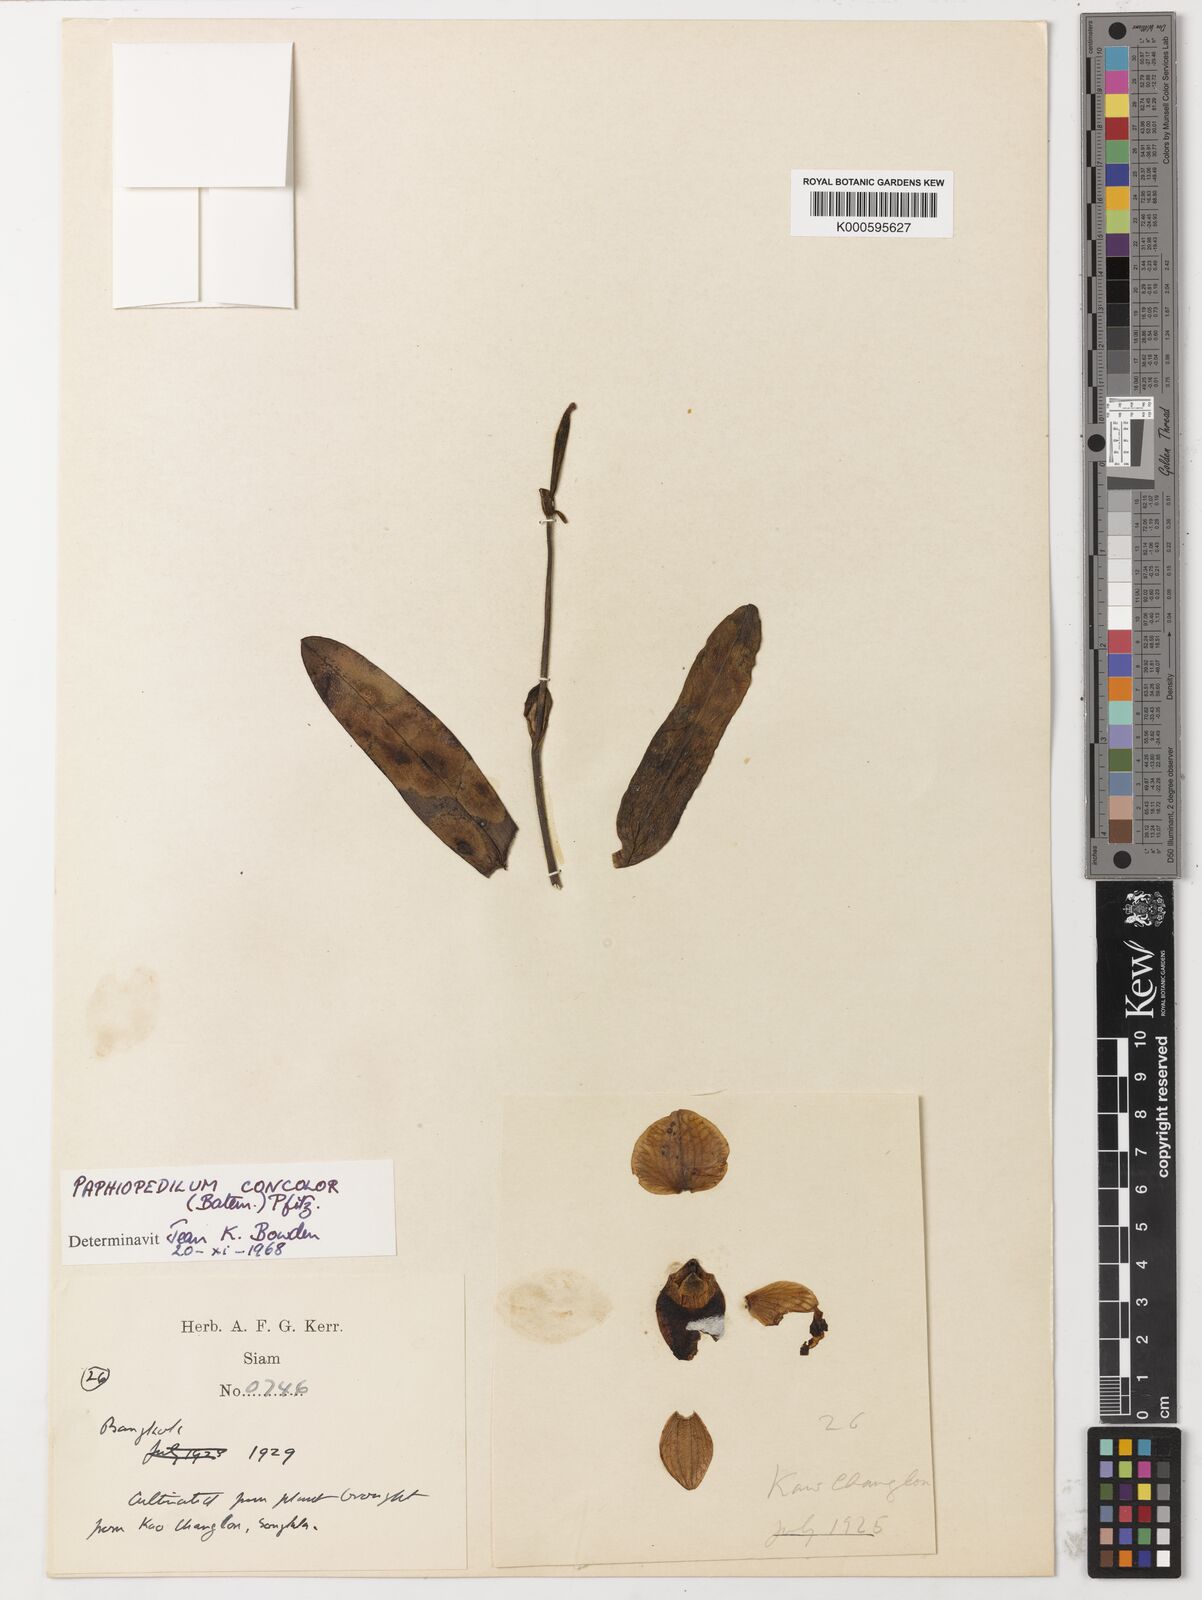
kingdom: Plantae
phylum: Tracheophyta
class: Liliopsida
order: Asparagales
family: Orchidaceae
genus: Paphiopedilum
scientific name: Paphiopedilum niveum
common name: Snow-white paphiopedilum
